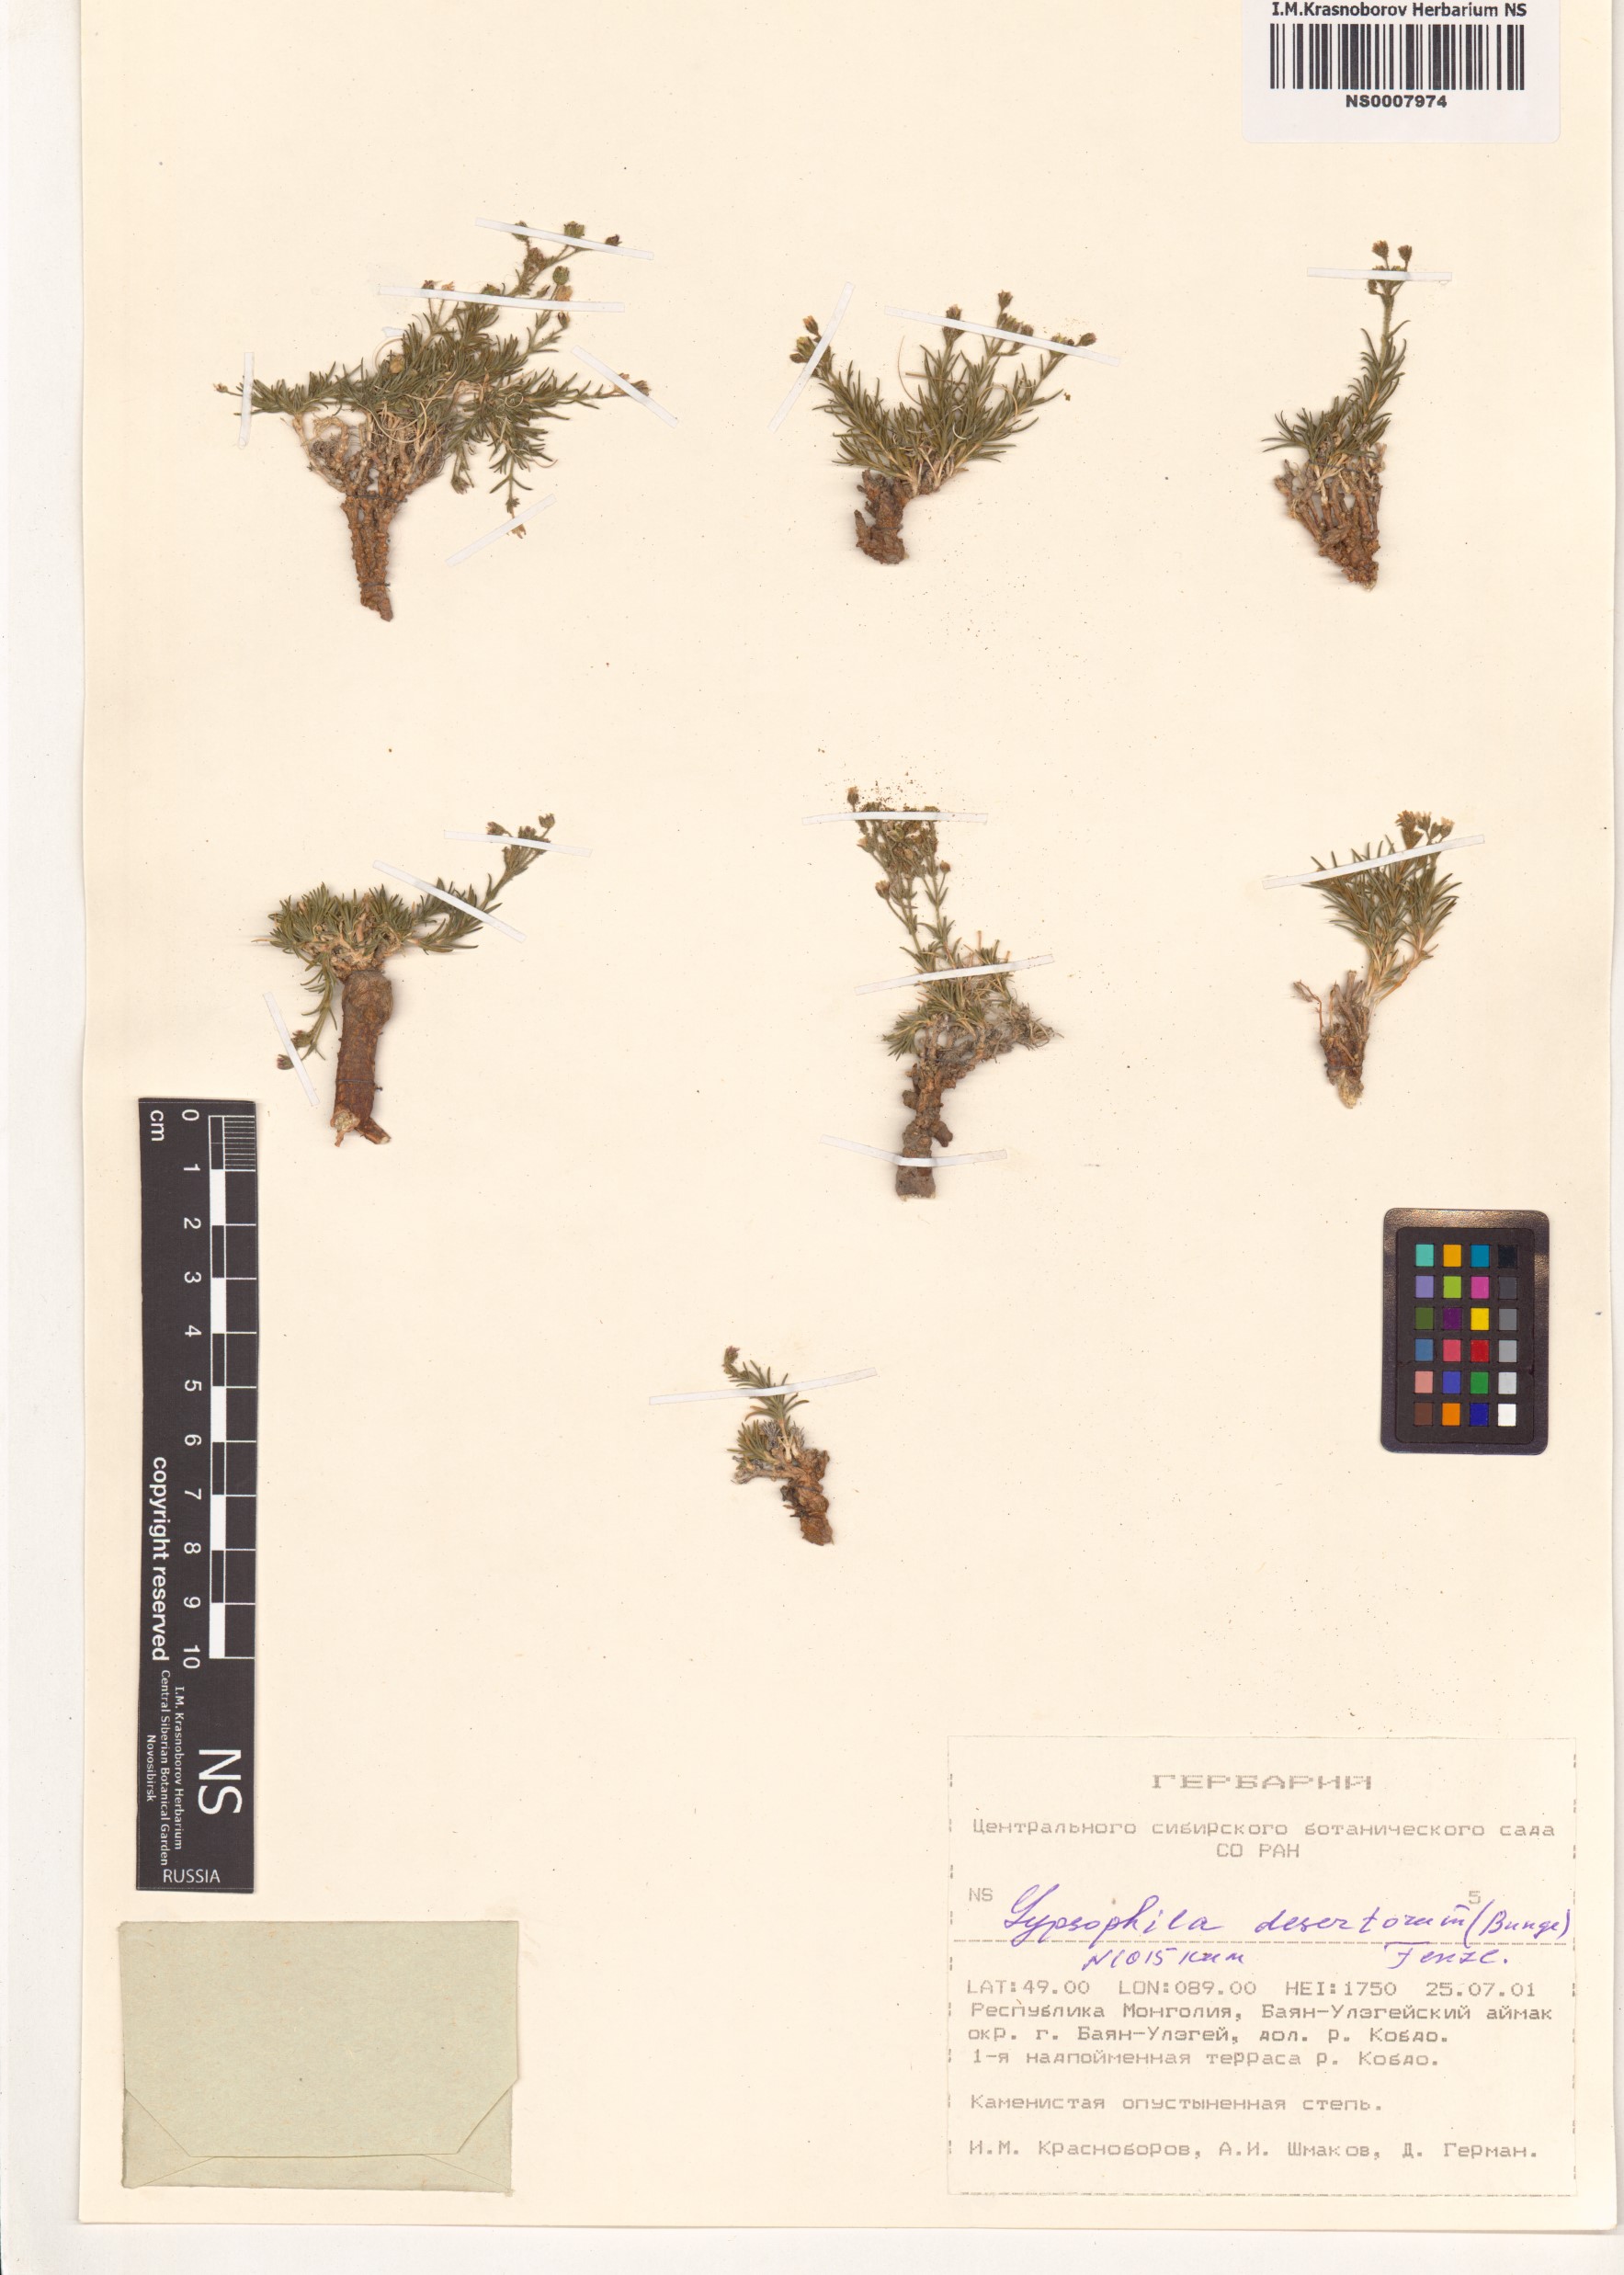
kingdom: Plantae
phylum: Tracheophyta
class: Magnoliopsida
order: Caryophyllales
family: Caryophyllaceae
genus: Heterochroa
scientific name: Heterochroa desertorum
